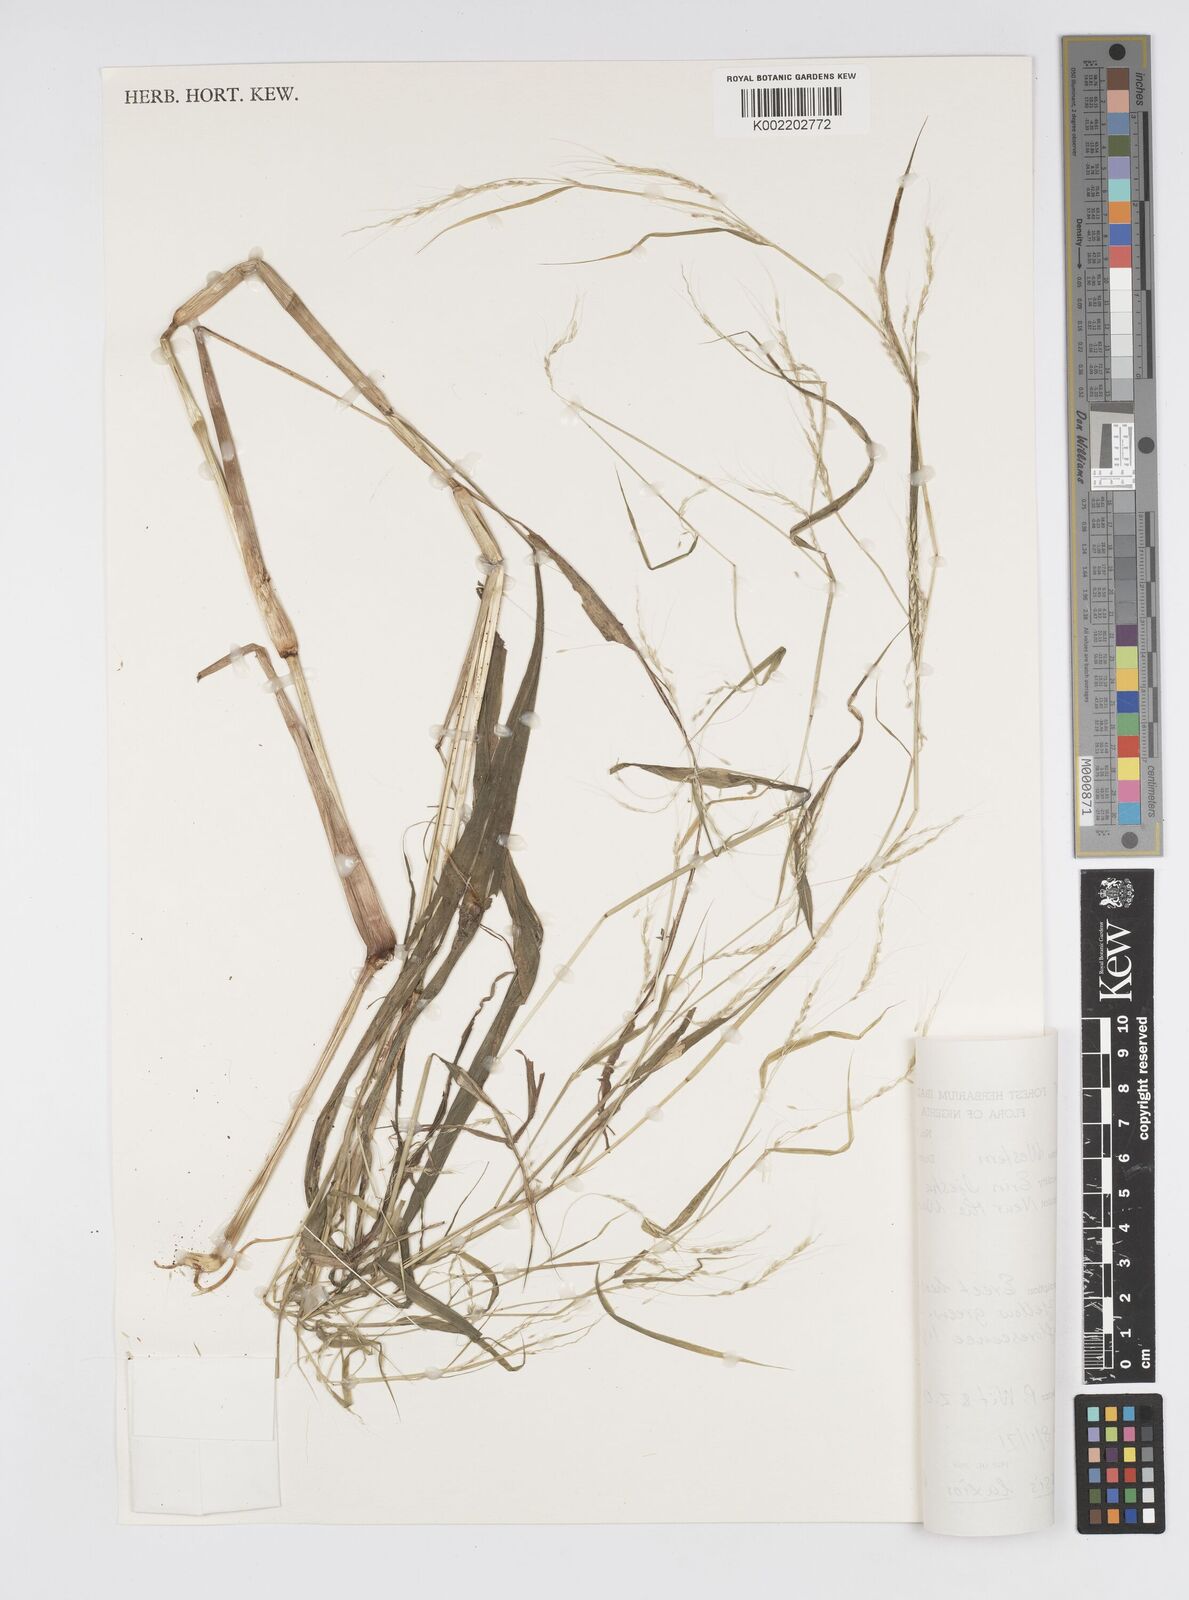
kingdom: Plantae
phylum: Tracheophyta
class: Liliopsida
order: Poales
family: Poaceae
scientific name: Poaceae
